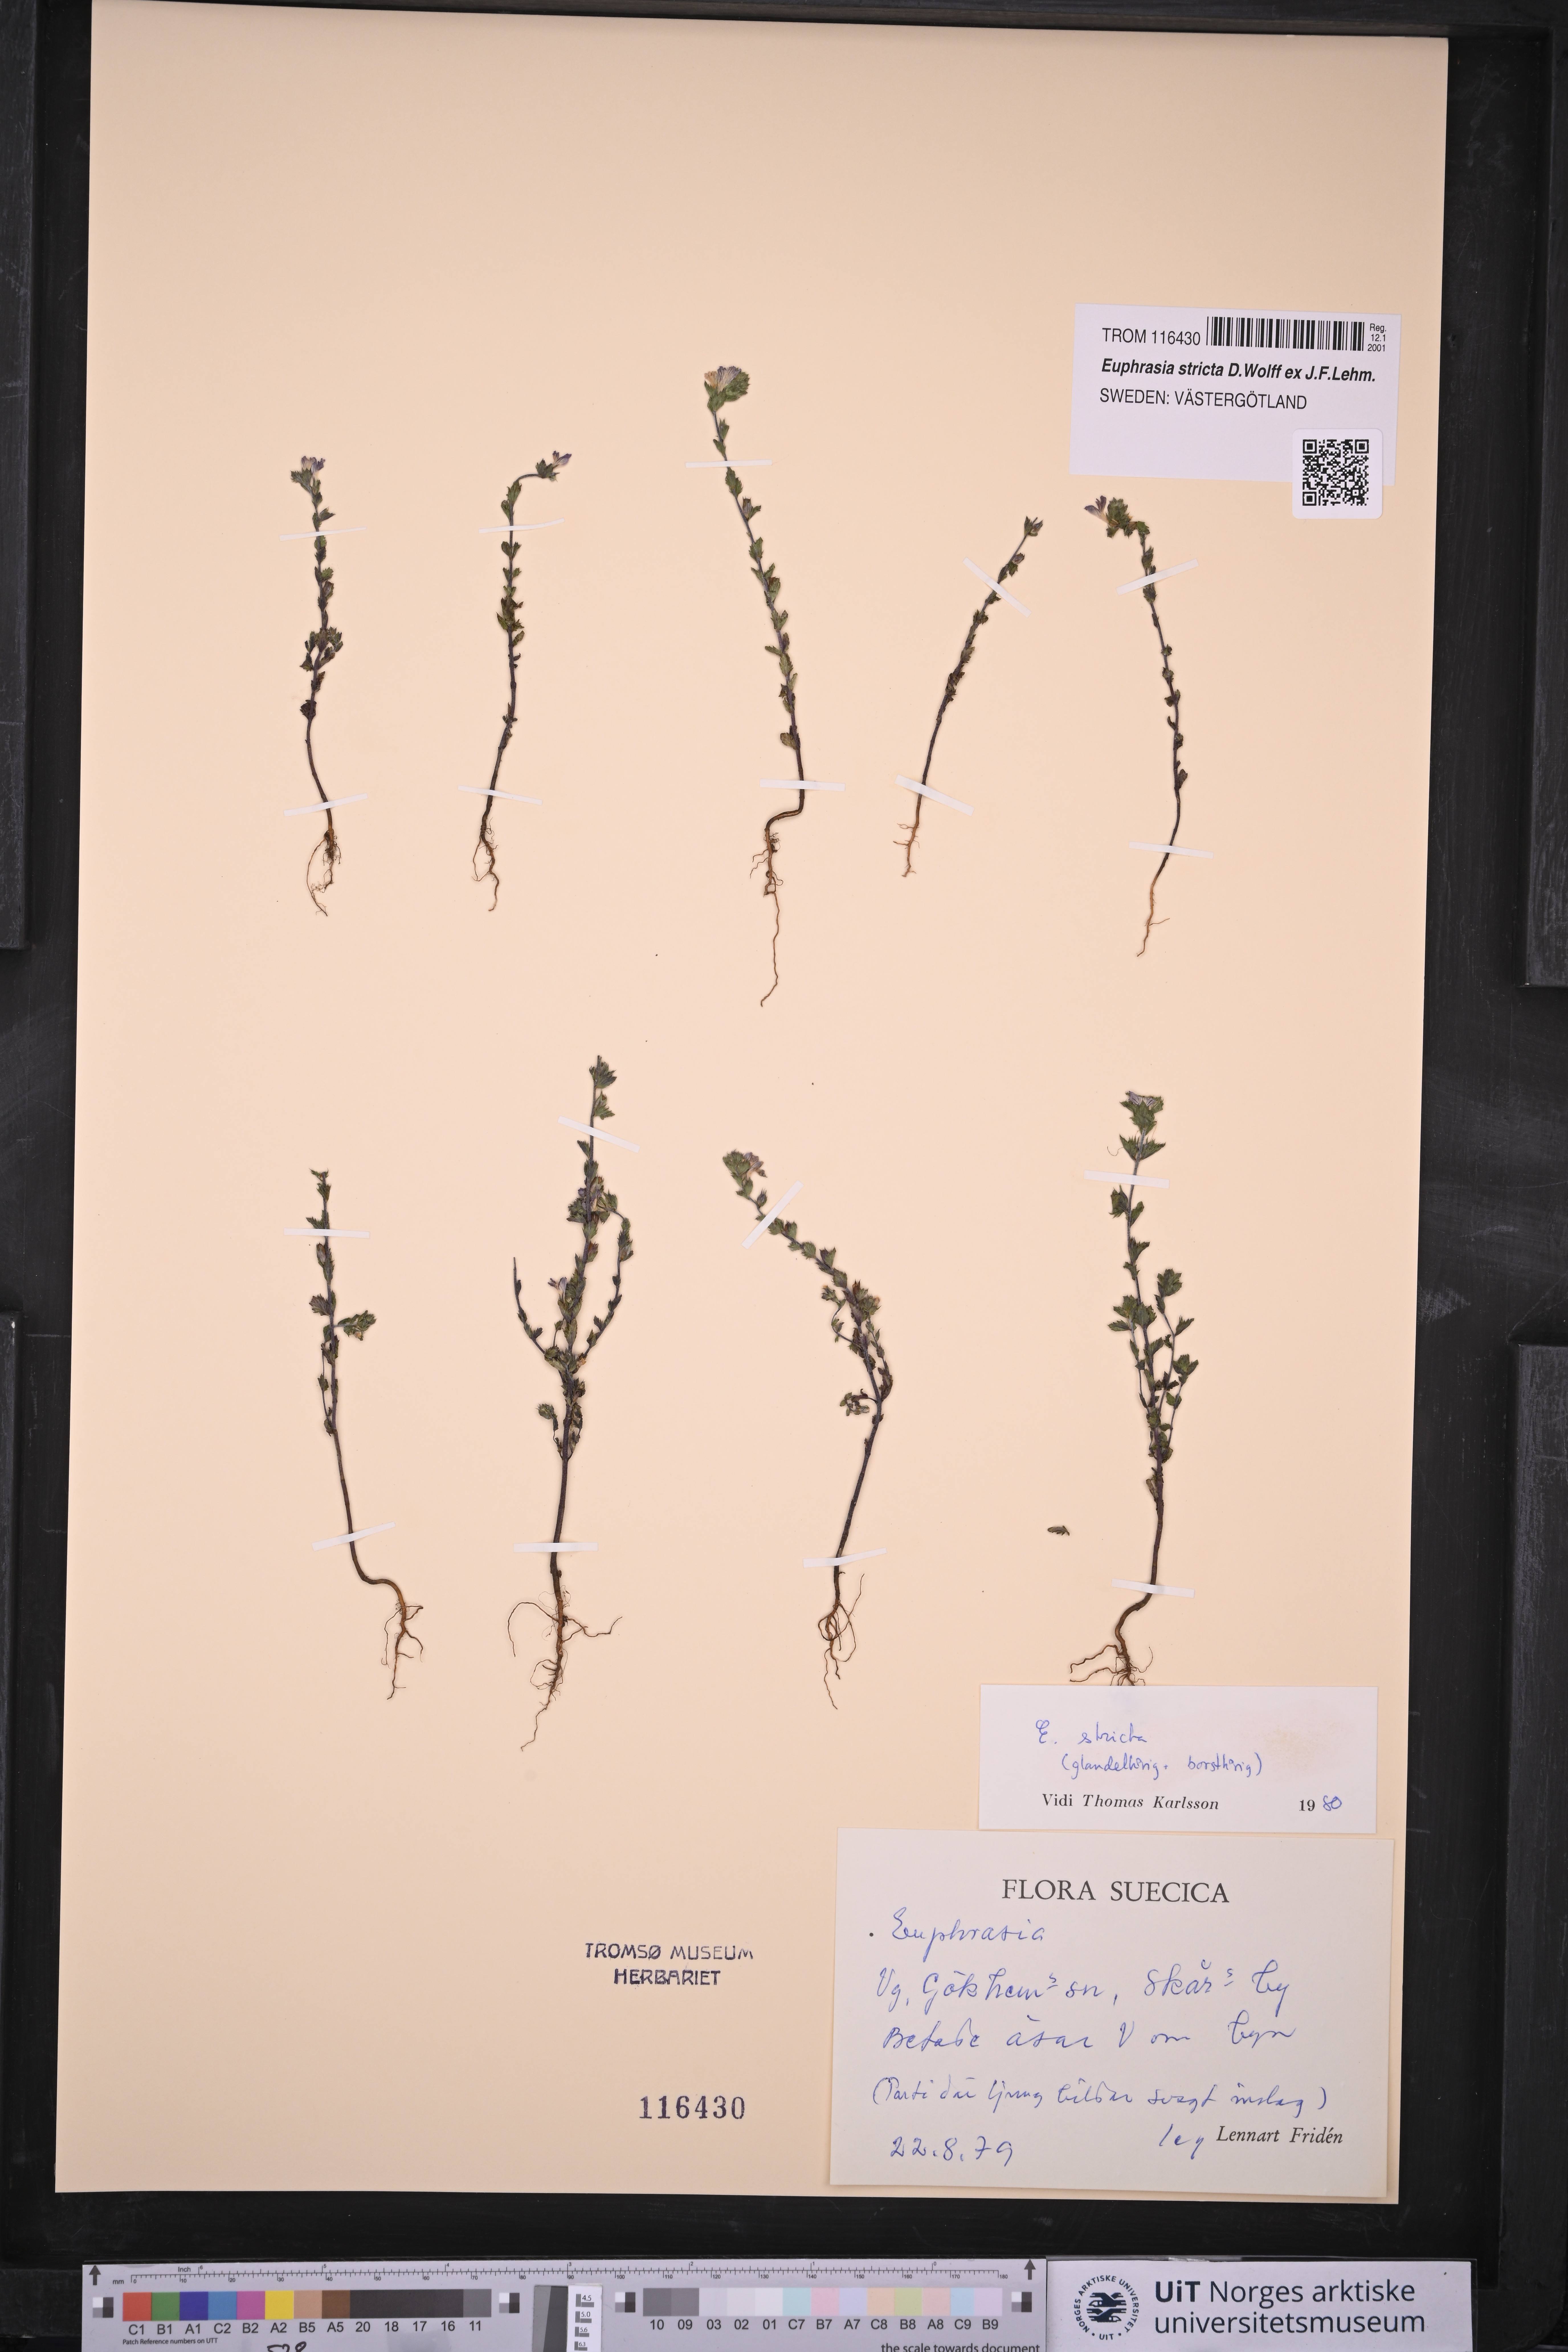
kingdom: Plantae
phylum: Tracheophyta
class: Magnoliopsida
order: Lamiales
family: Orobanchaceae
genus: Euphrasia
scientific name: Euphrasia stricta
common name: Drug eyebright
